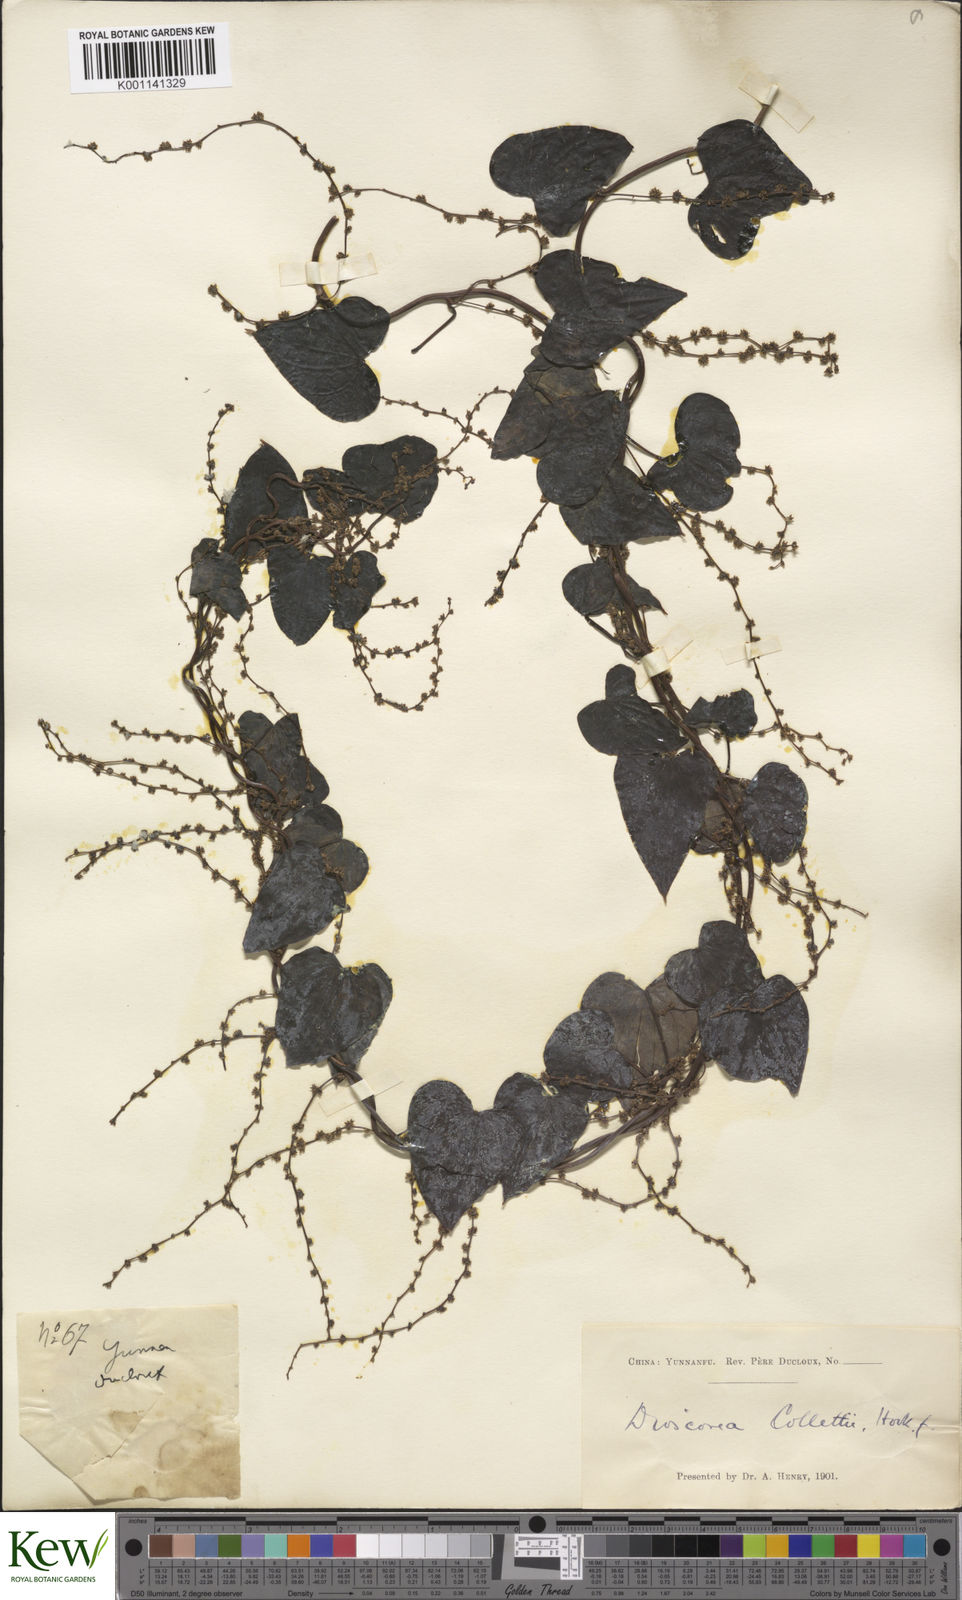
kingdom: Plantae
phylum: Tracheophyta
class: Liliopsida
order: Dioscoreales
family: Dioscoreaceae
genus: Dioscorea
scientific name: Dioscorea collettii
